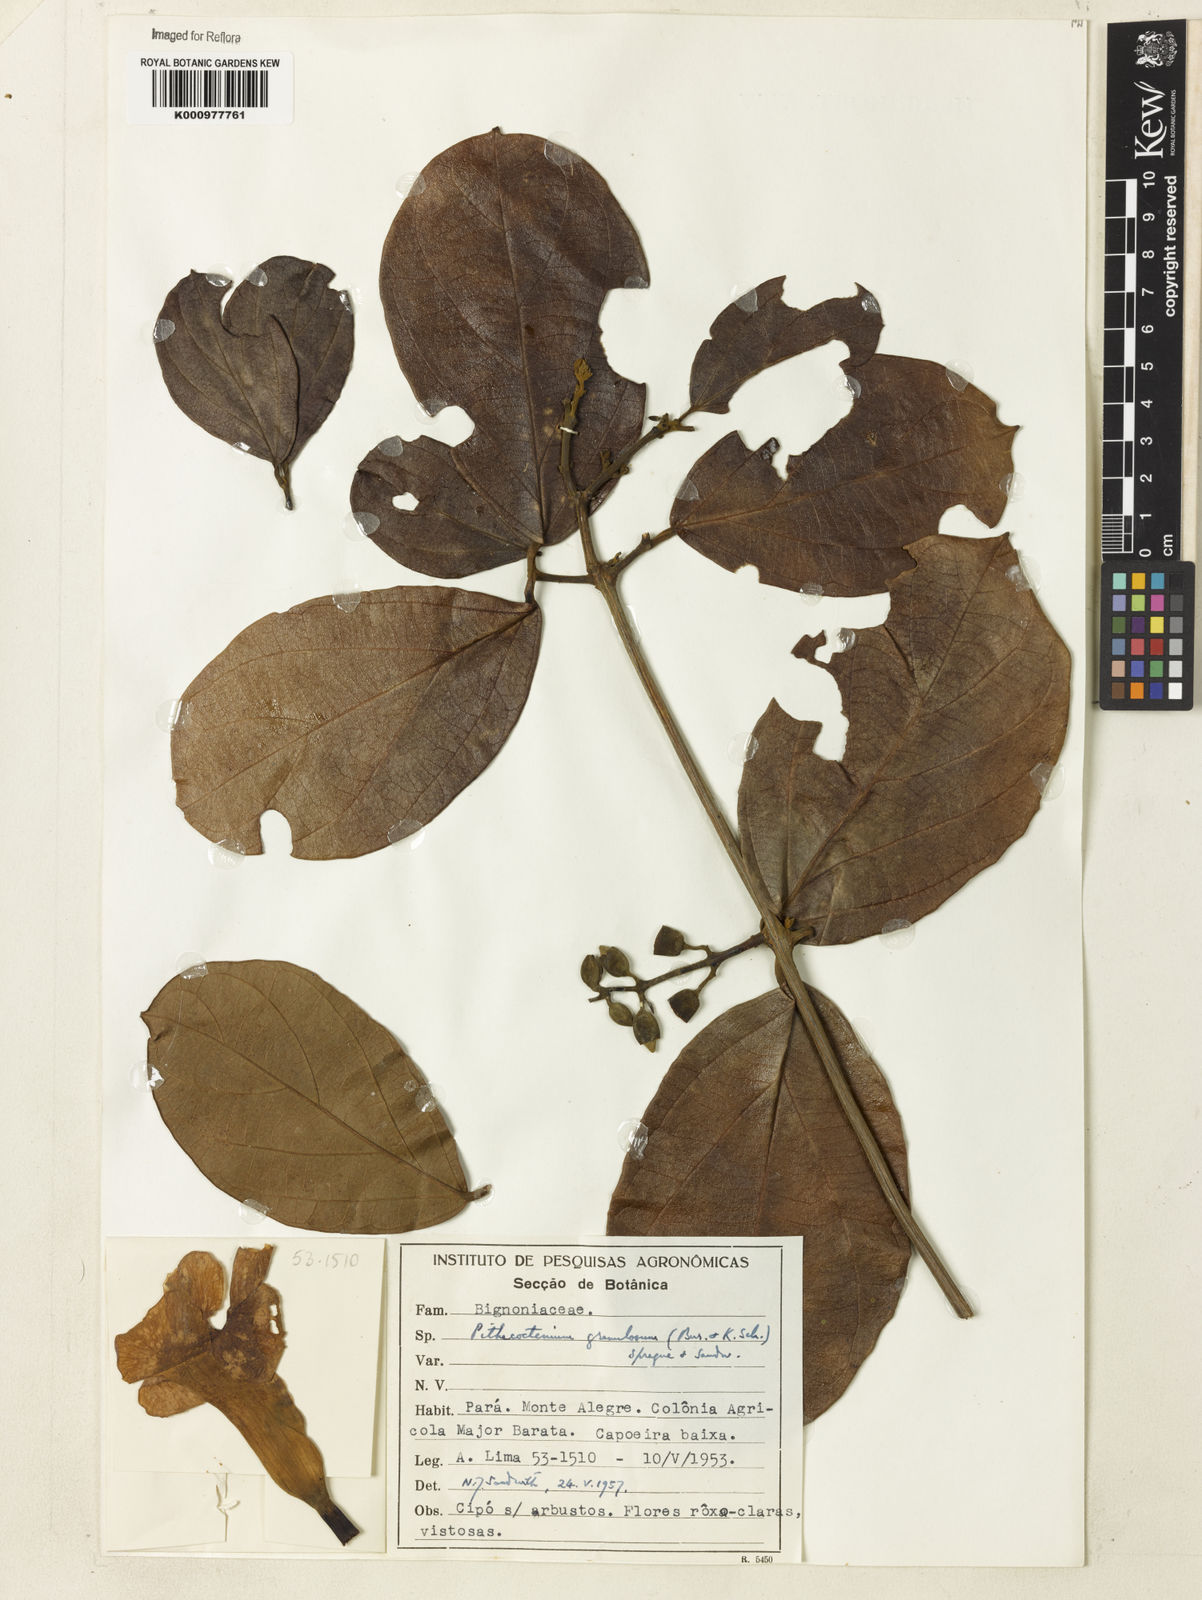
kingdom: Plantae
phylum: Tracheophyta
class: Magnoliopsida
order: Lamiales
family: Bignoniaceae
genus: Amphilophium
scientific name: Amphilophium granulosum
